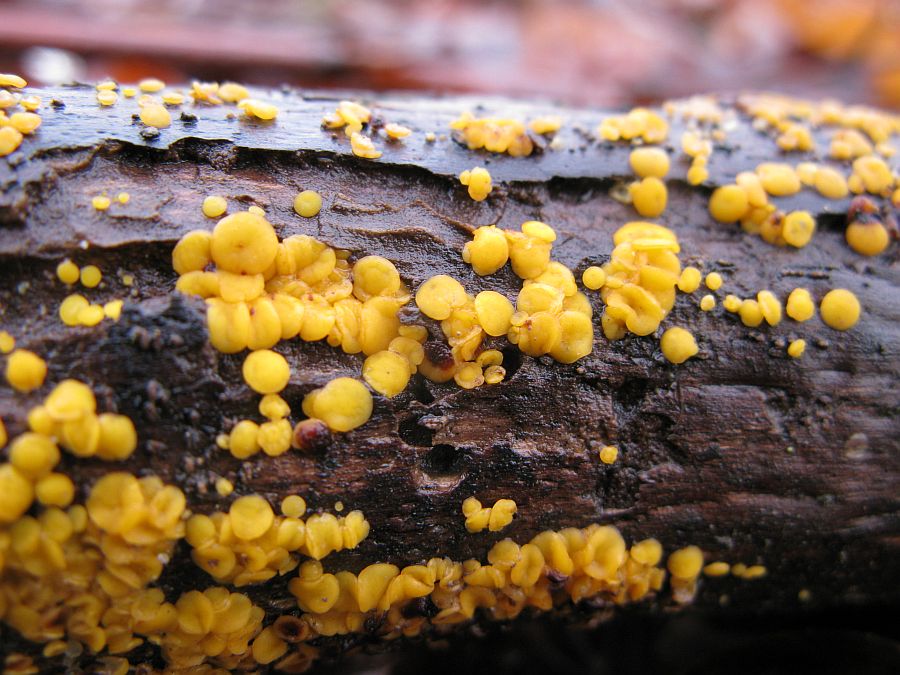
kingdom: Fungi
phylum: Basidiomycota
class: Dacrymycetes
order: Dacrymycetales
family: Dacrymycetaceae
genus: Dacrymyces
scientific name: Dacrymyces lacrymalis
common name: rynket tåresvamp
